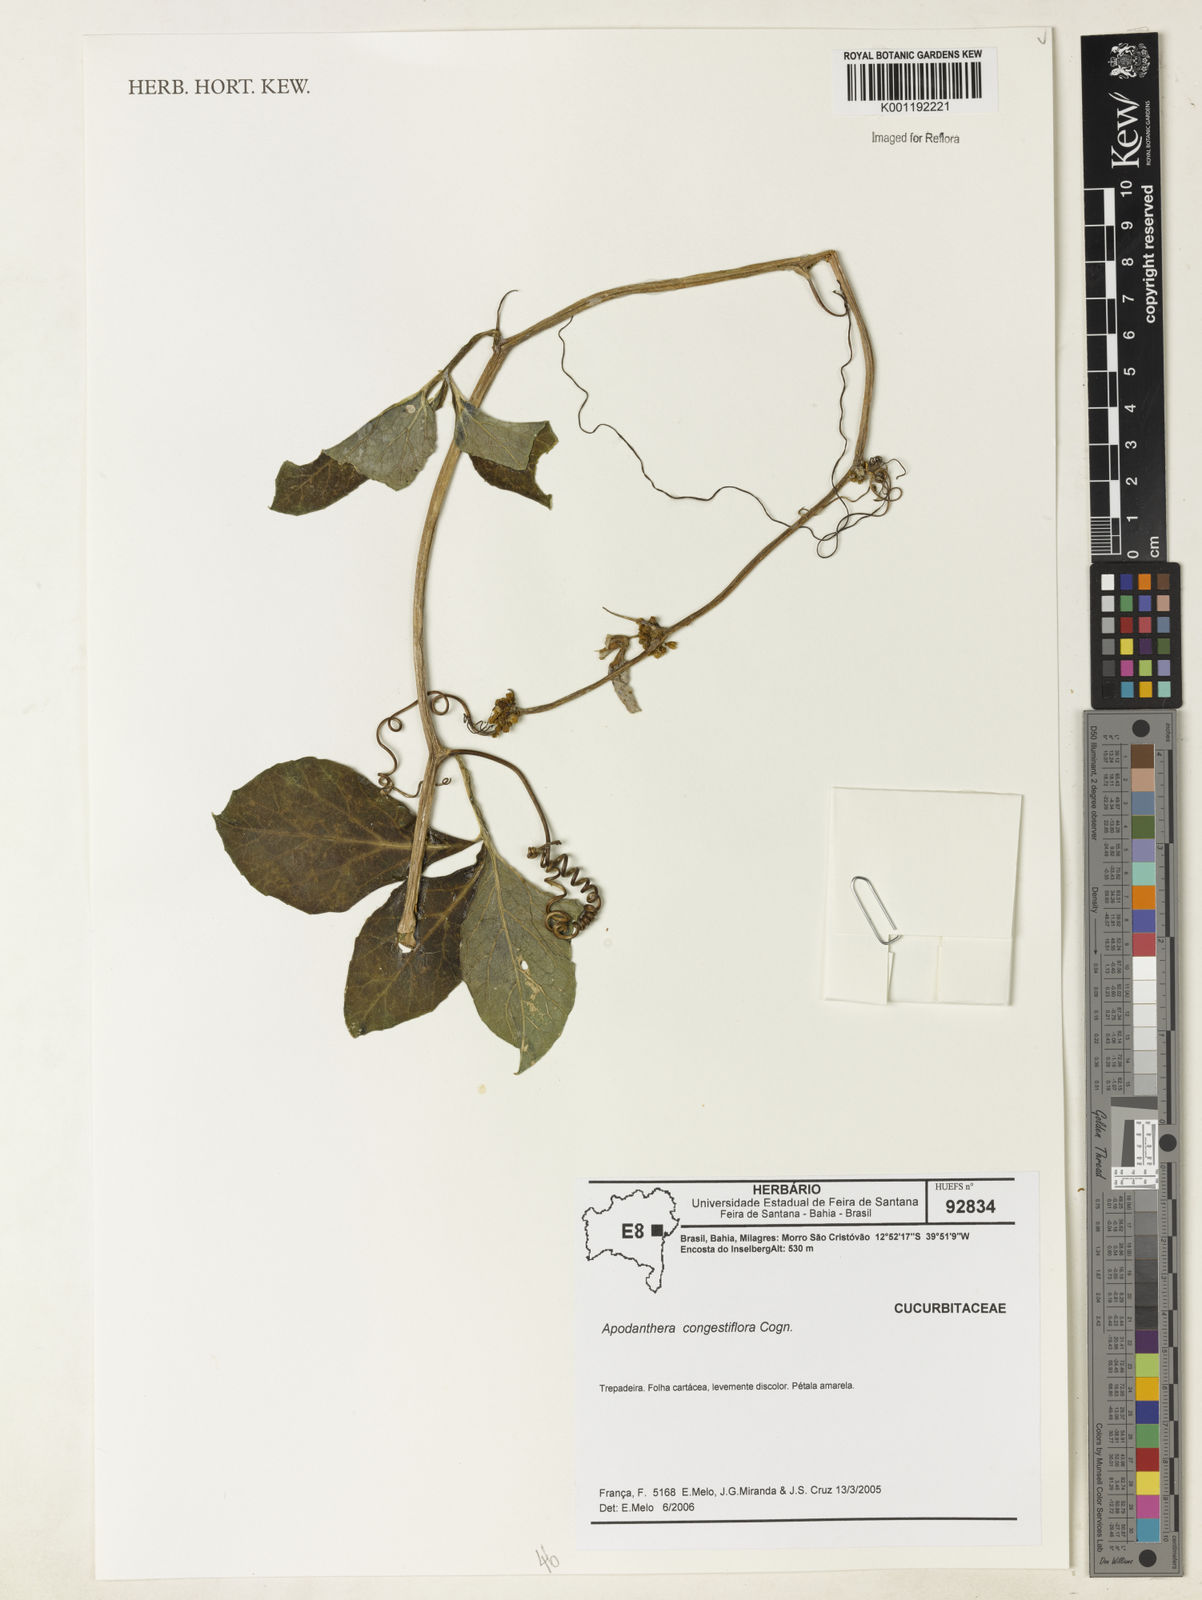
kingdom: Plantae
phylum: Tracheophyta
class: Magnoliopsida
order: Cucurbitales
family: Cucurbitaceae
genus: Apodanthera
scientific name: Apodanthera congestiflora
